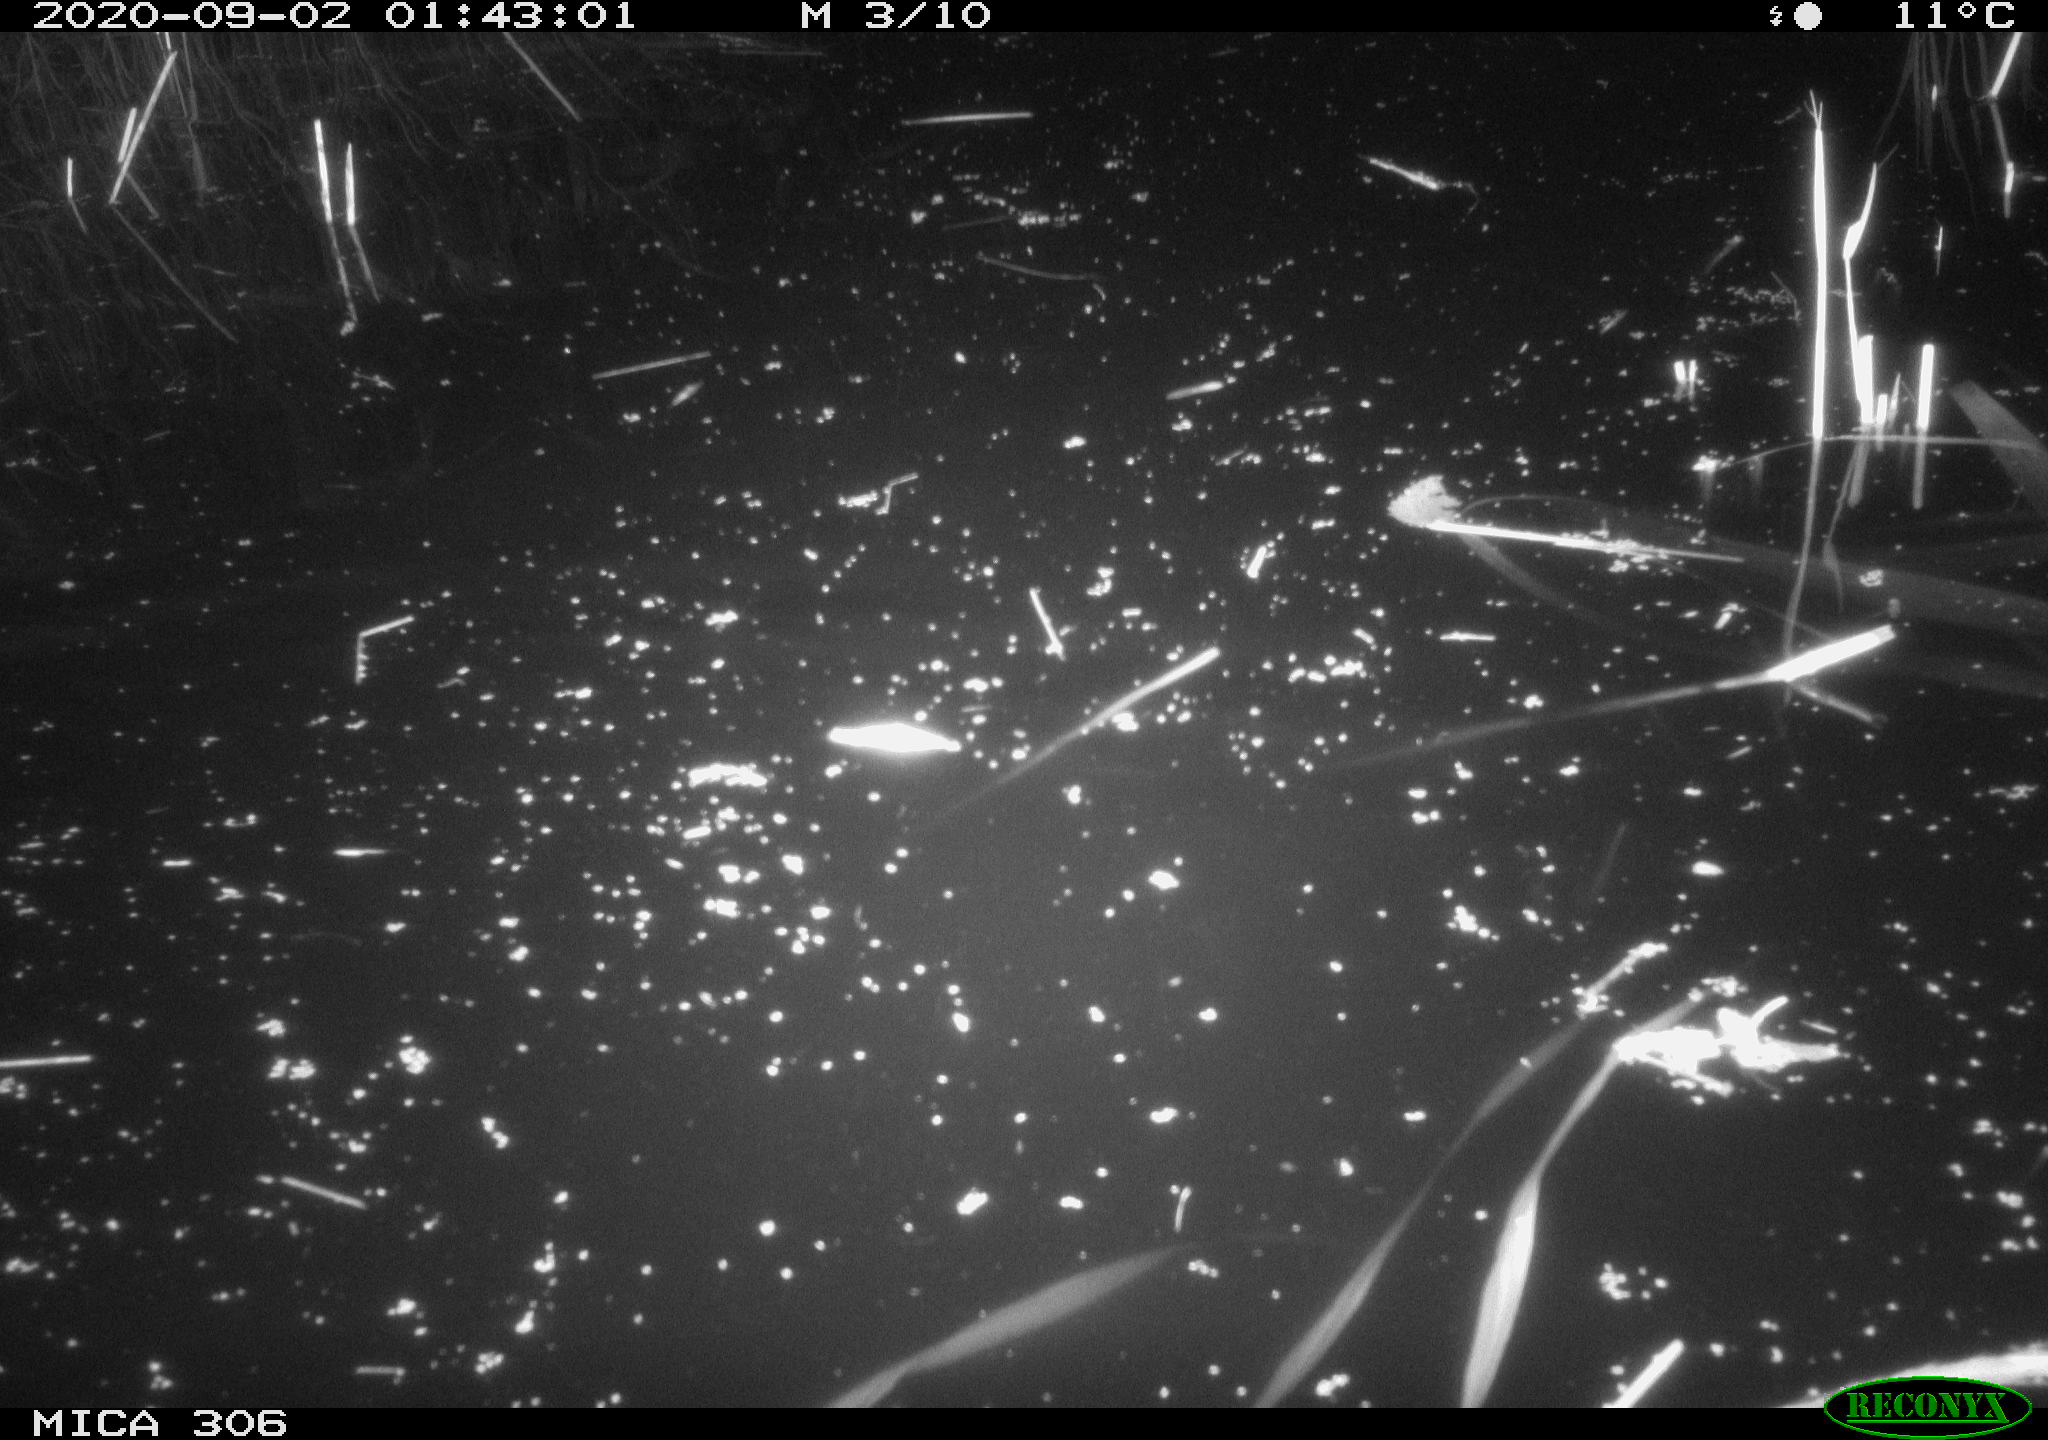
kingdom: Animalia
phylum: Chordata
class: Mammalia
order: Rodentia
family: Muridae
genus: Rattus
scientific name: Rattus norvegicus
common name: Brown rat
